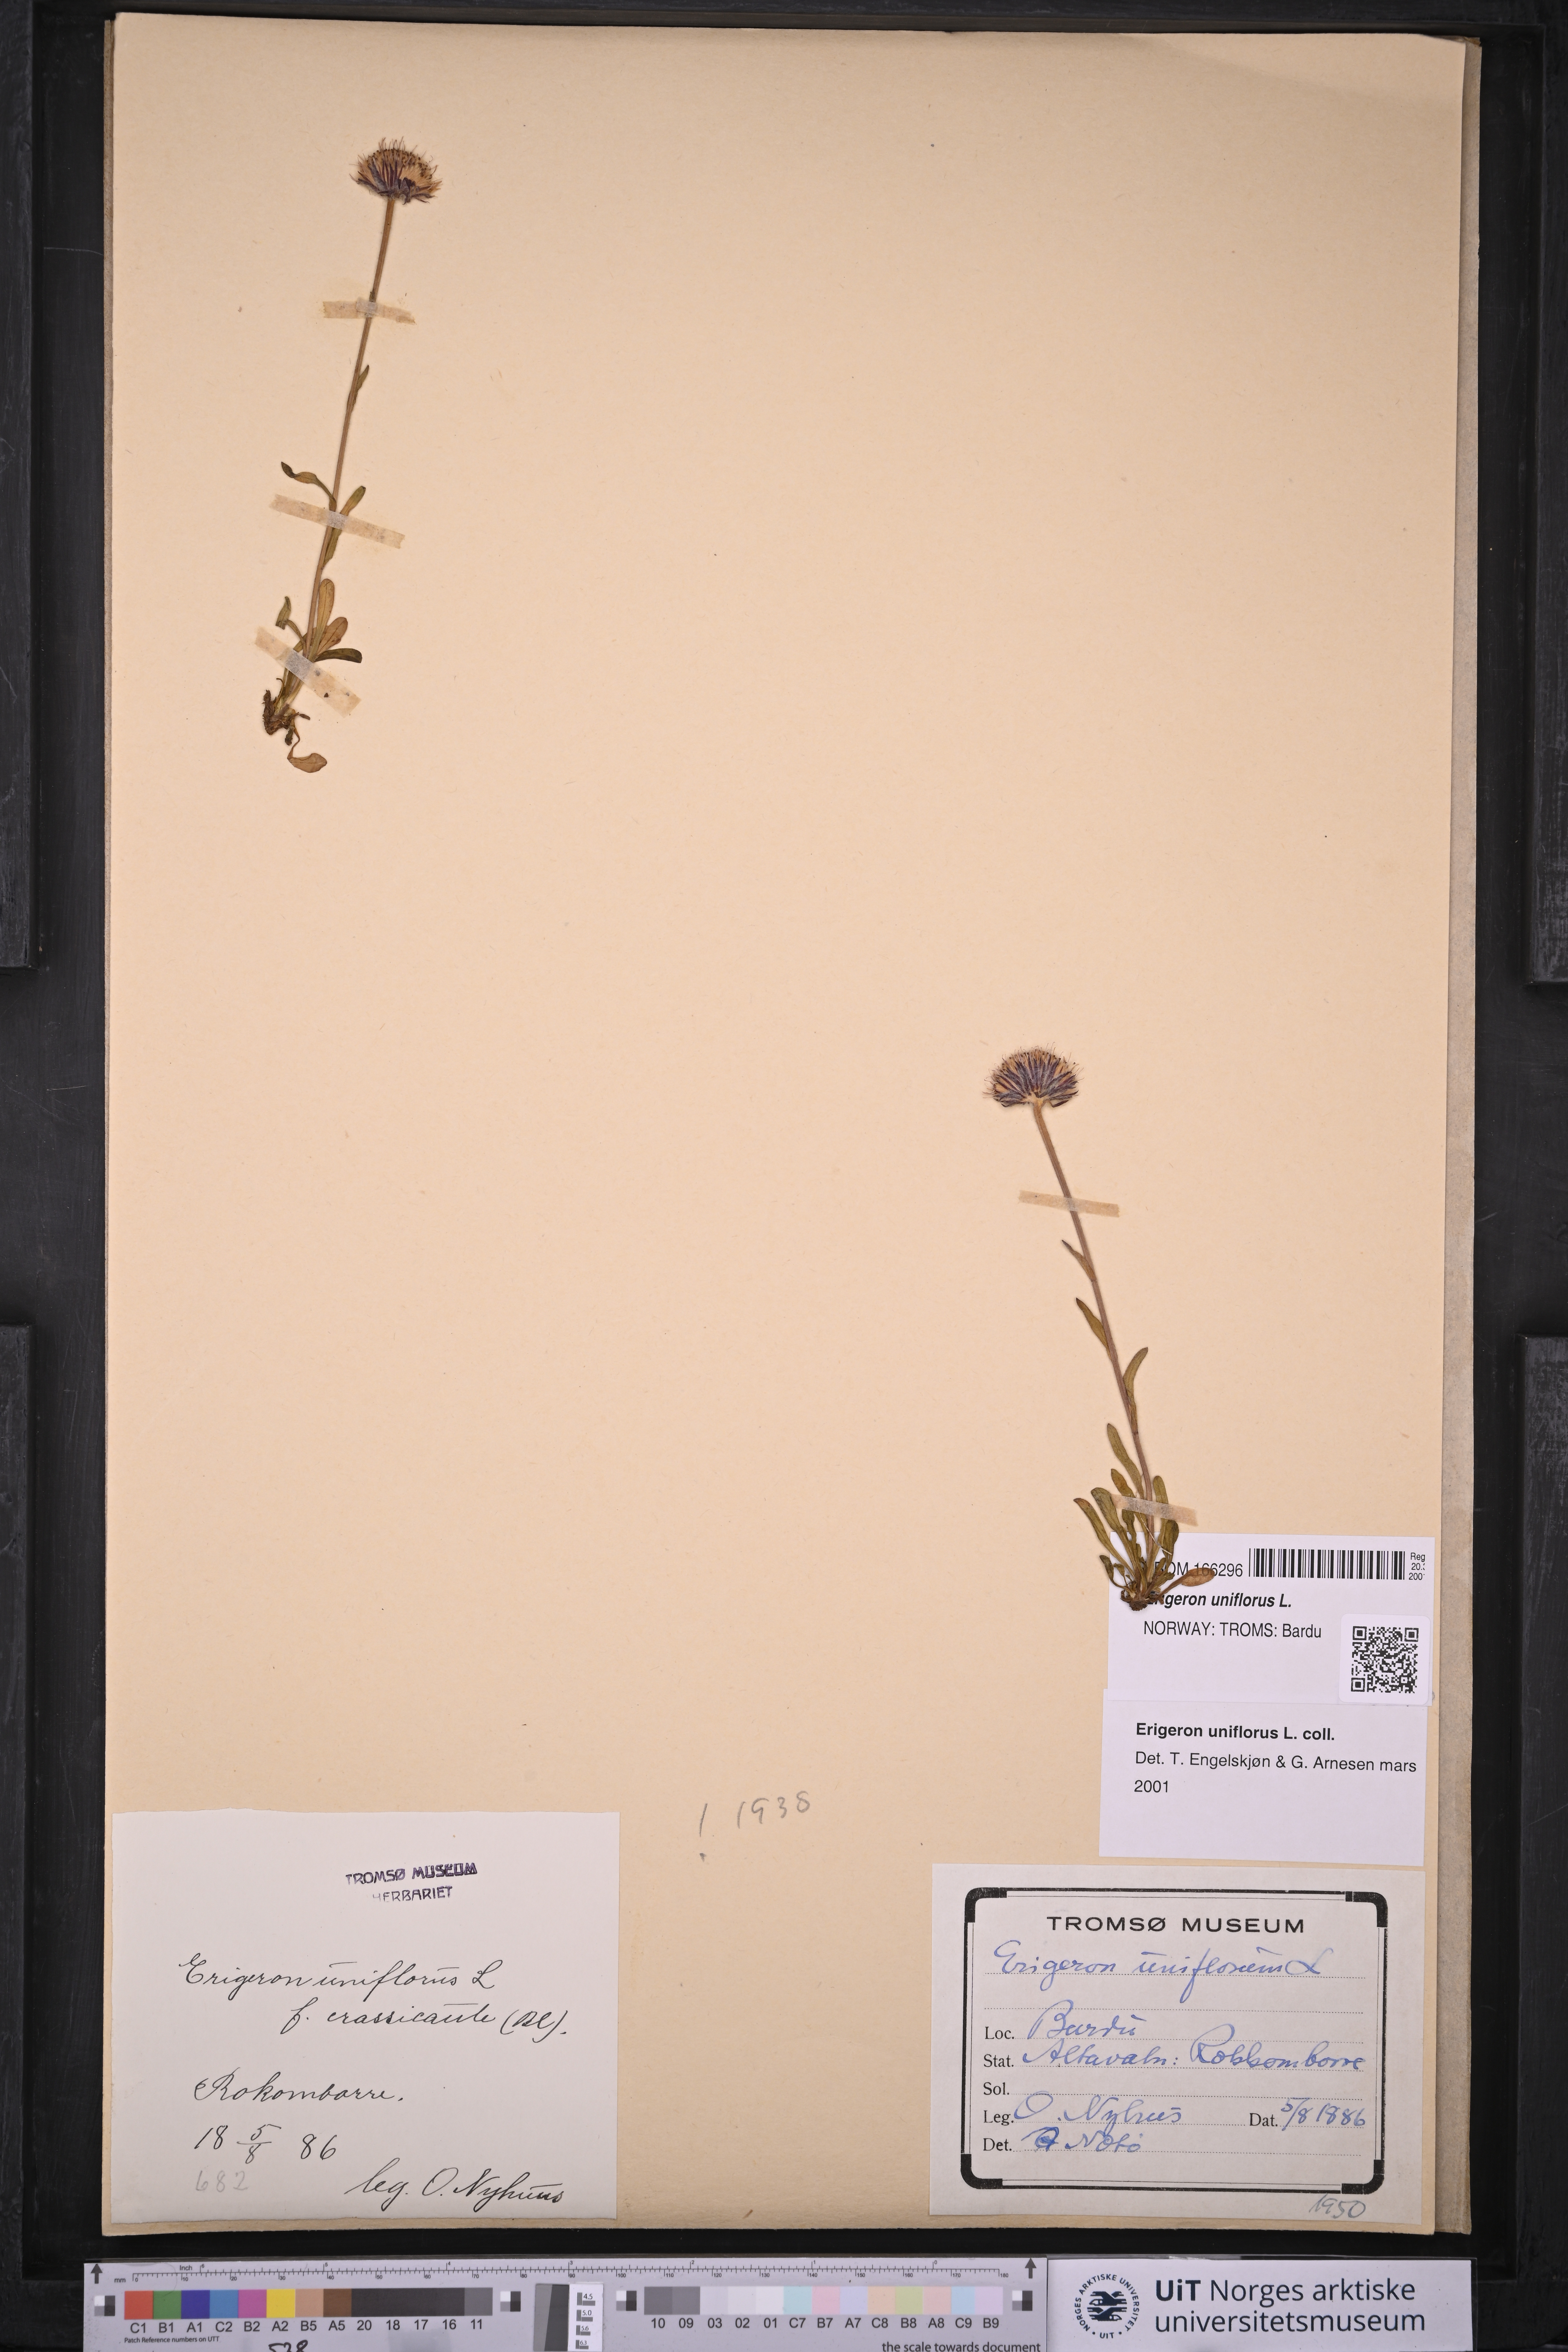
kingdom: Plantae
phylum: Tracheophyta
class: Magnoliopsida
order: Asterales
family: Asteraceae
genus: Erigeron
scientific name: Erigeron uniflorus
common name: Northern daisy
